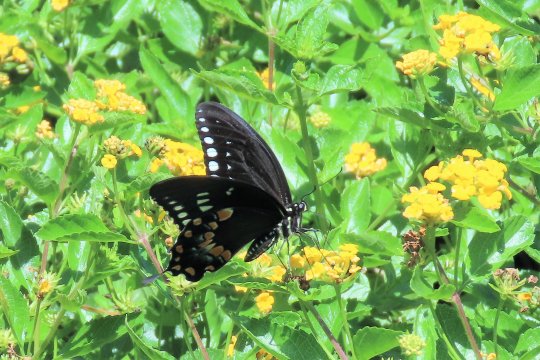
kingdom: Animalia
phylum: Arthropoda
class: Insecta
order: Lepidoptera
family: Papilionidae
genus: Pterourus
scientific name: Pterourus troilus
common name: Spicebush Swallowtail
